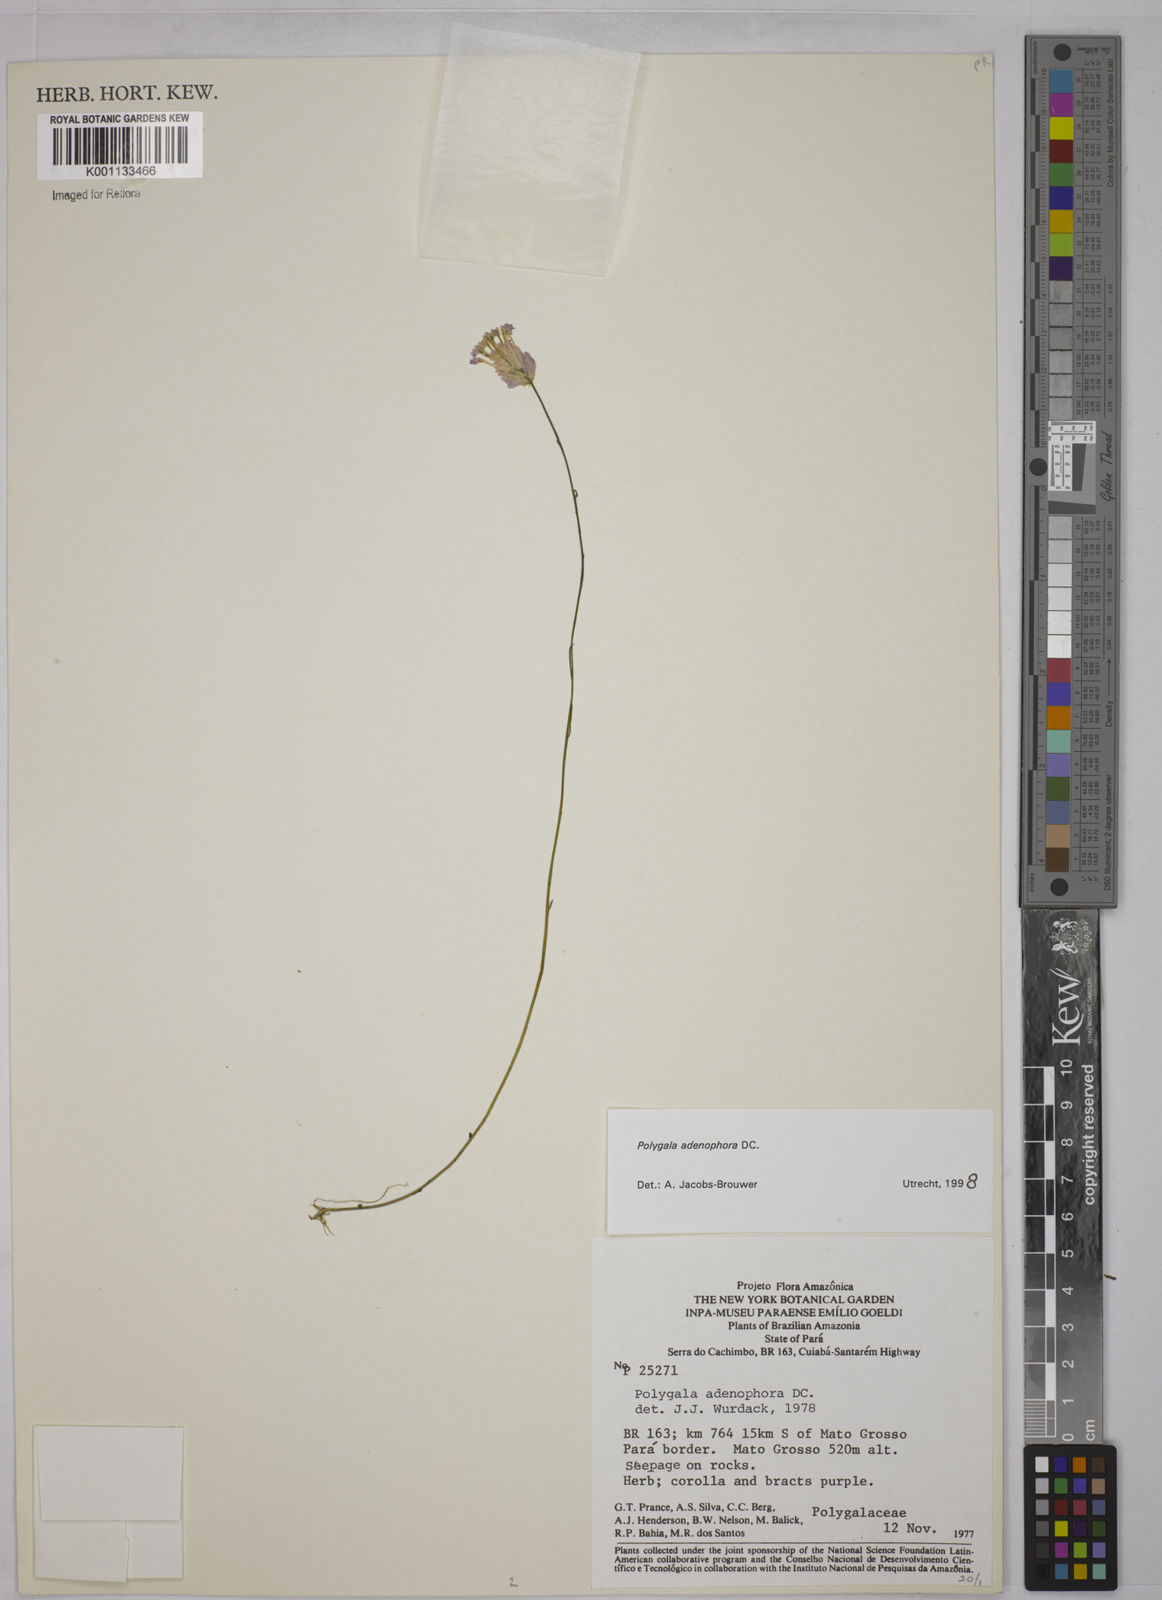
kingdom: Plantae
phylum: Tracheophyta
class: Magnoliopsida
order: Fabales
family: Polygalaceae
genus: Polygala
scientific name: Polygala adenophora
